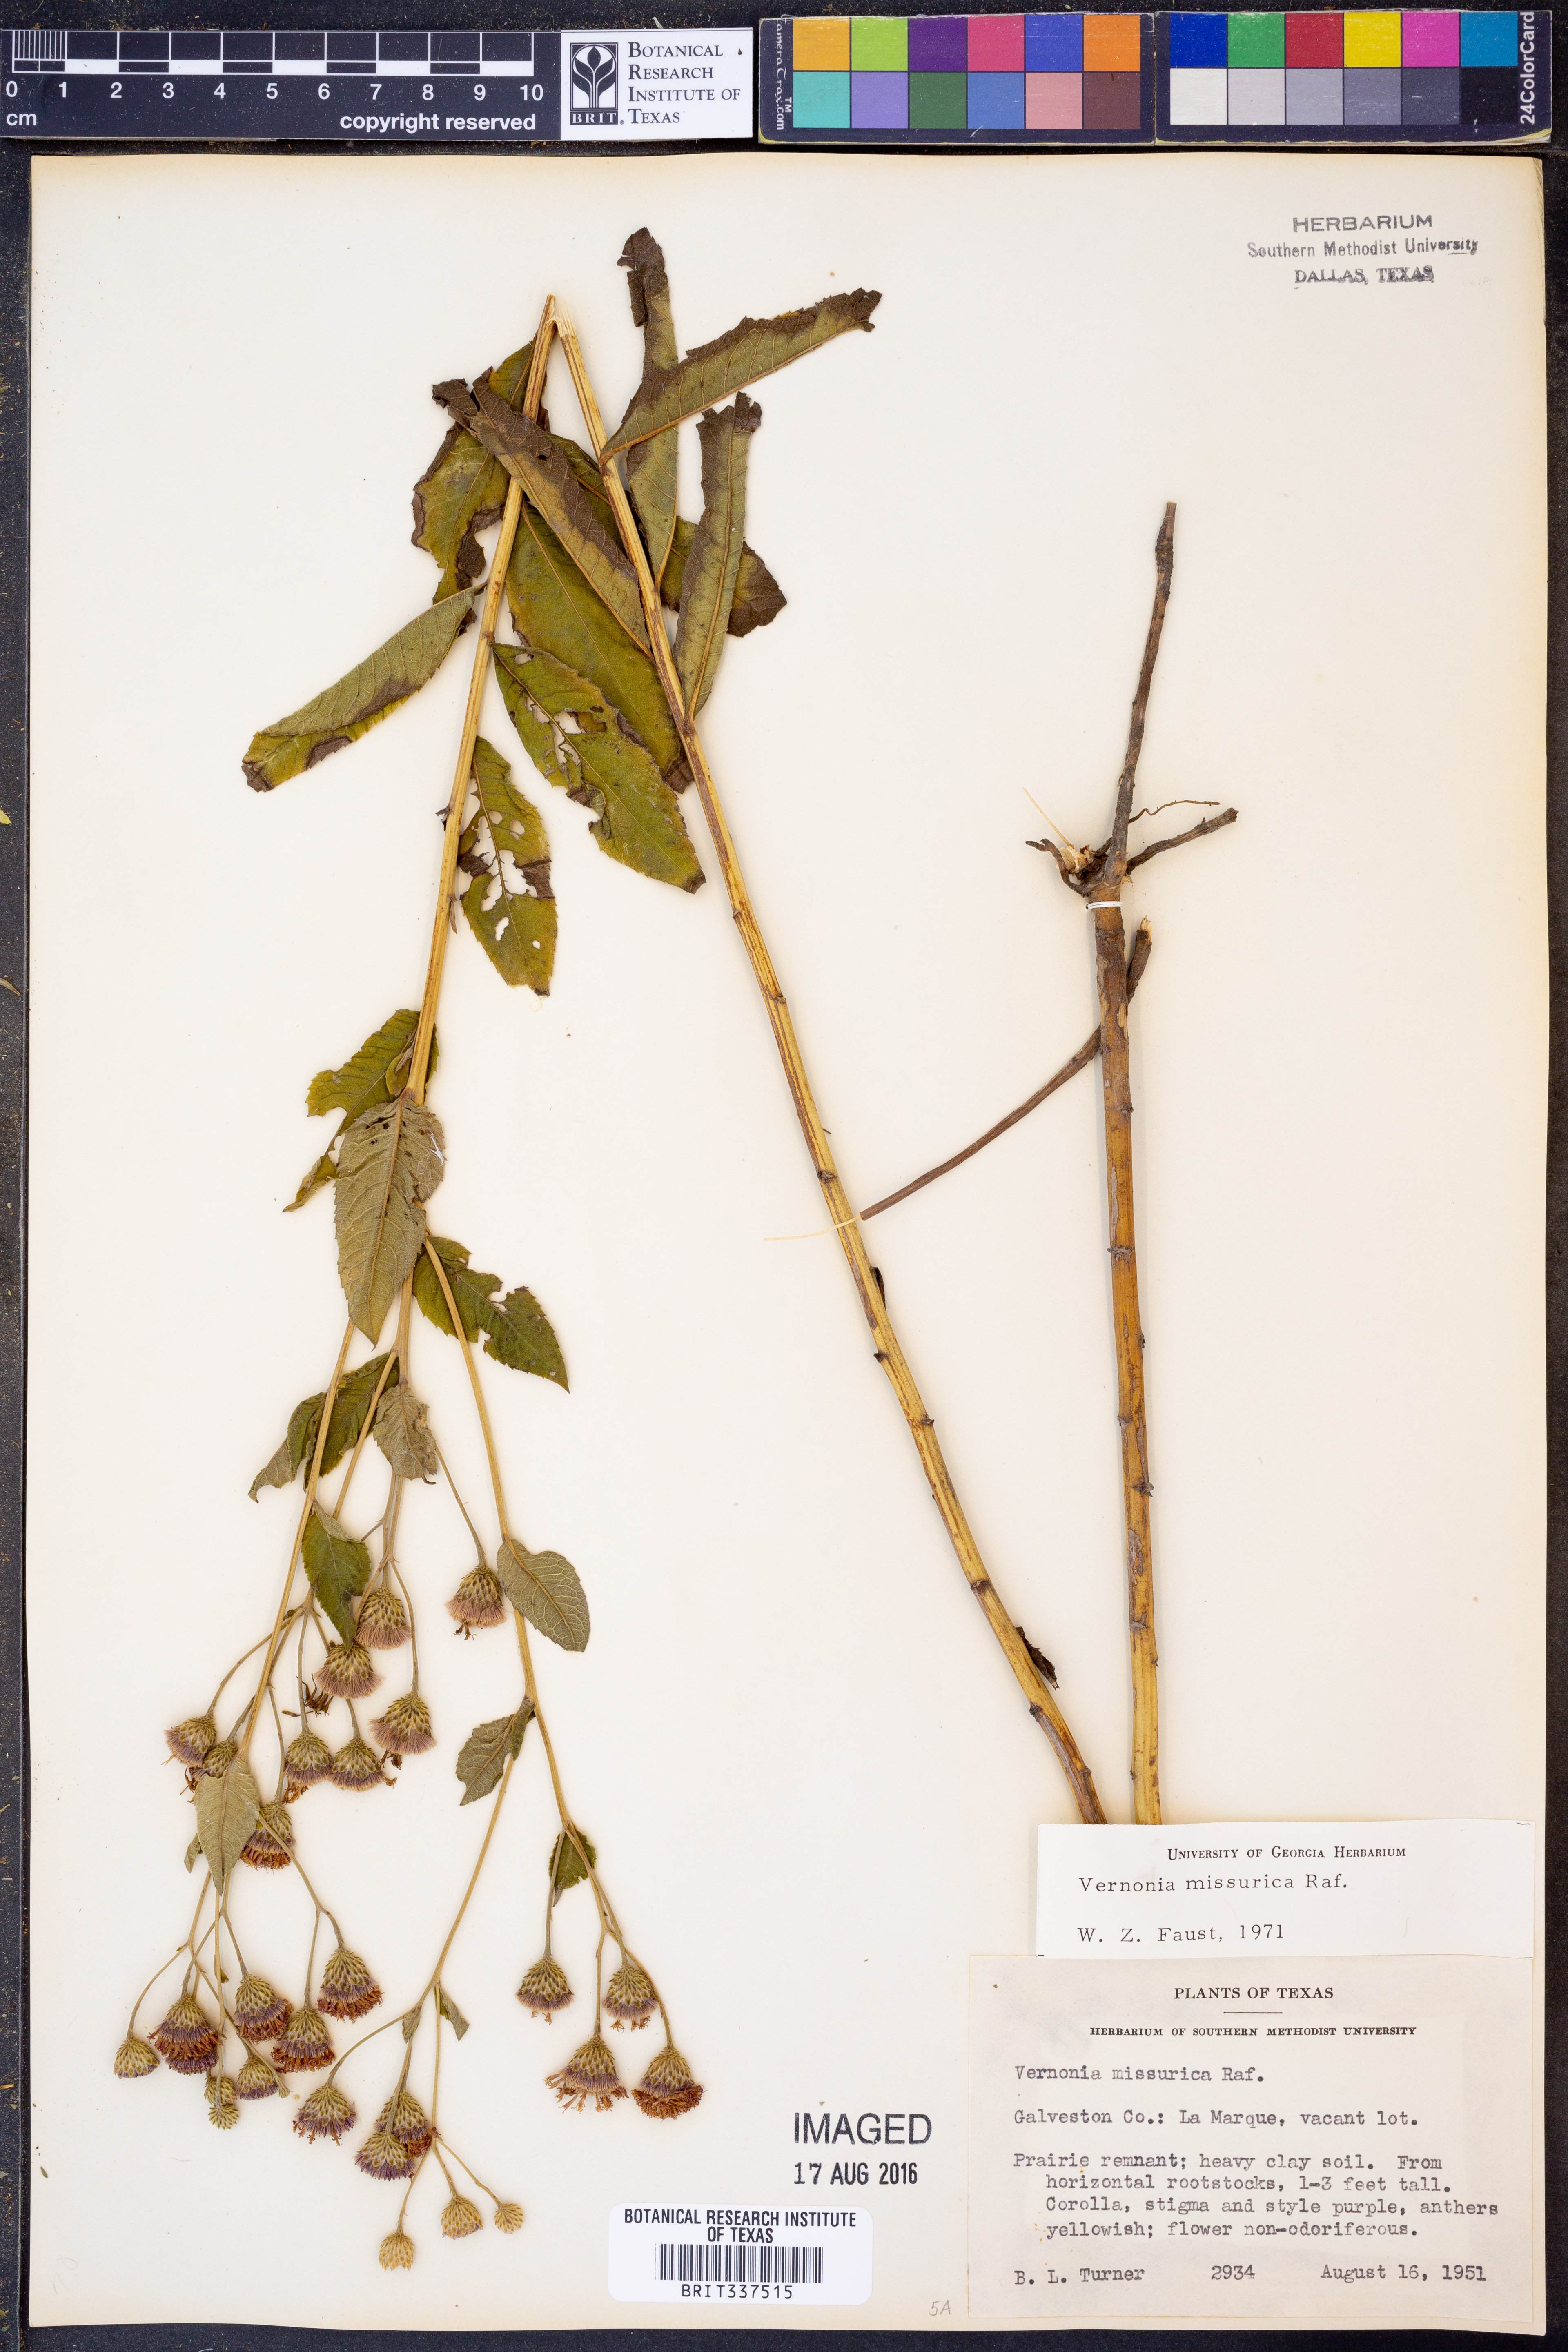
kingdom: Plantae
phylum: Tracheophyta
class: Magnoliopsida
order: Asterales
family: Asteraceae
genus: Vernonia
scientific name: Vernonia missurica
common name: Missouri ironweed
